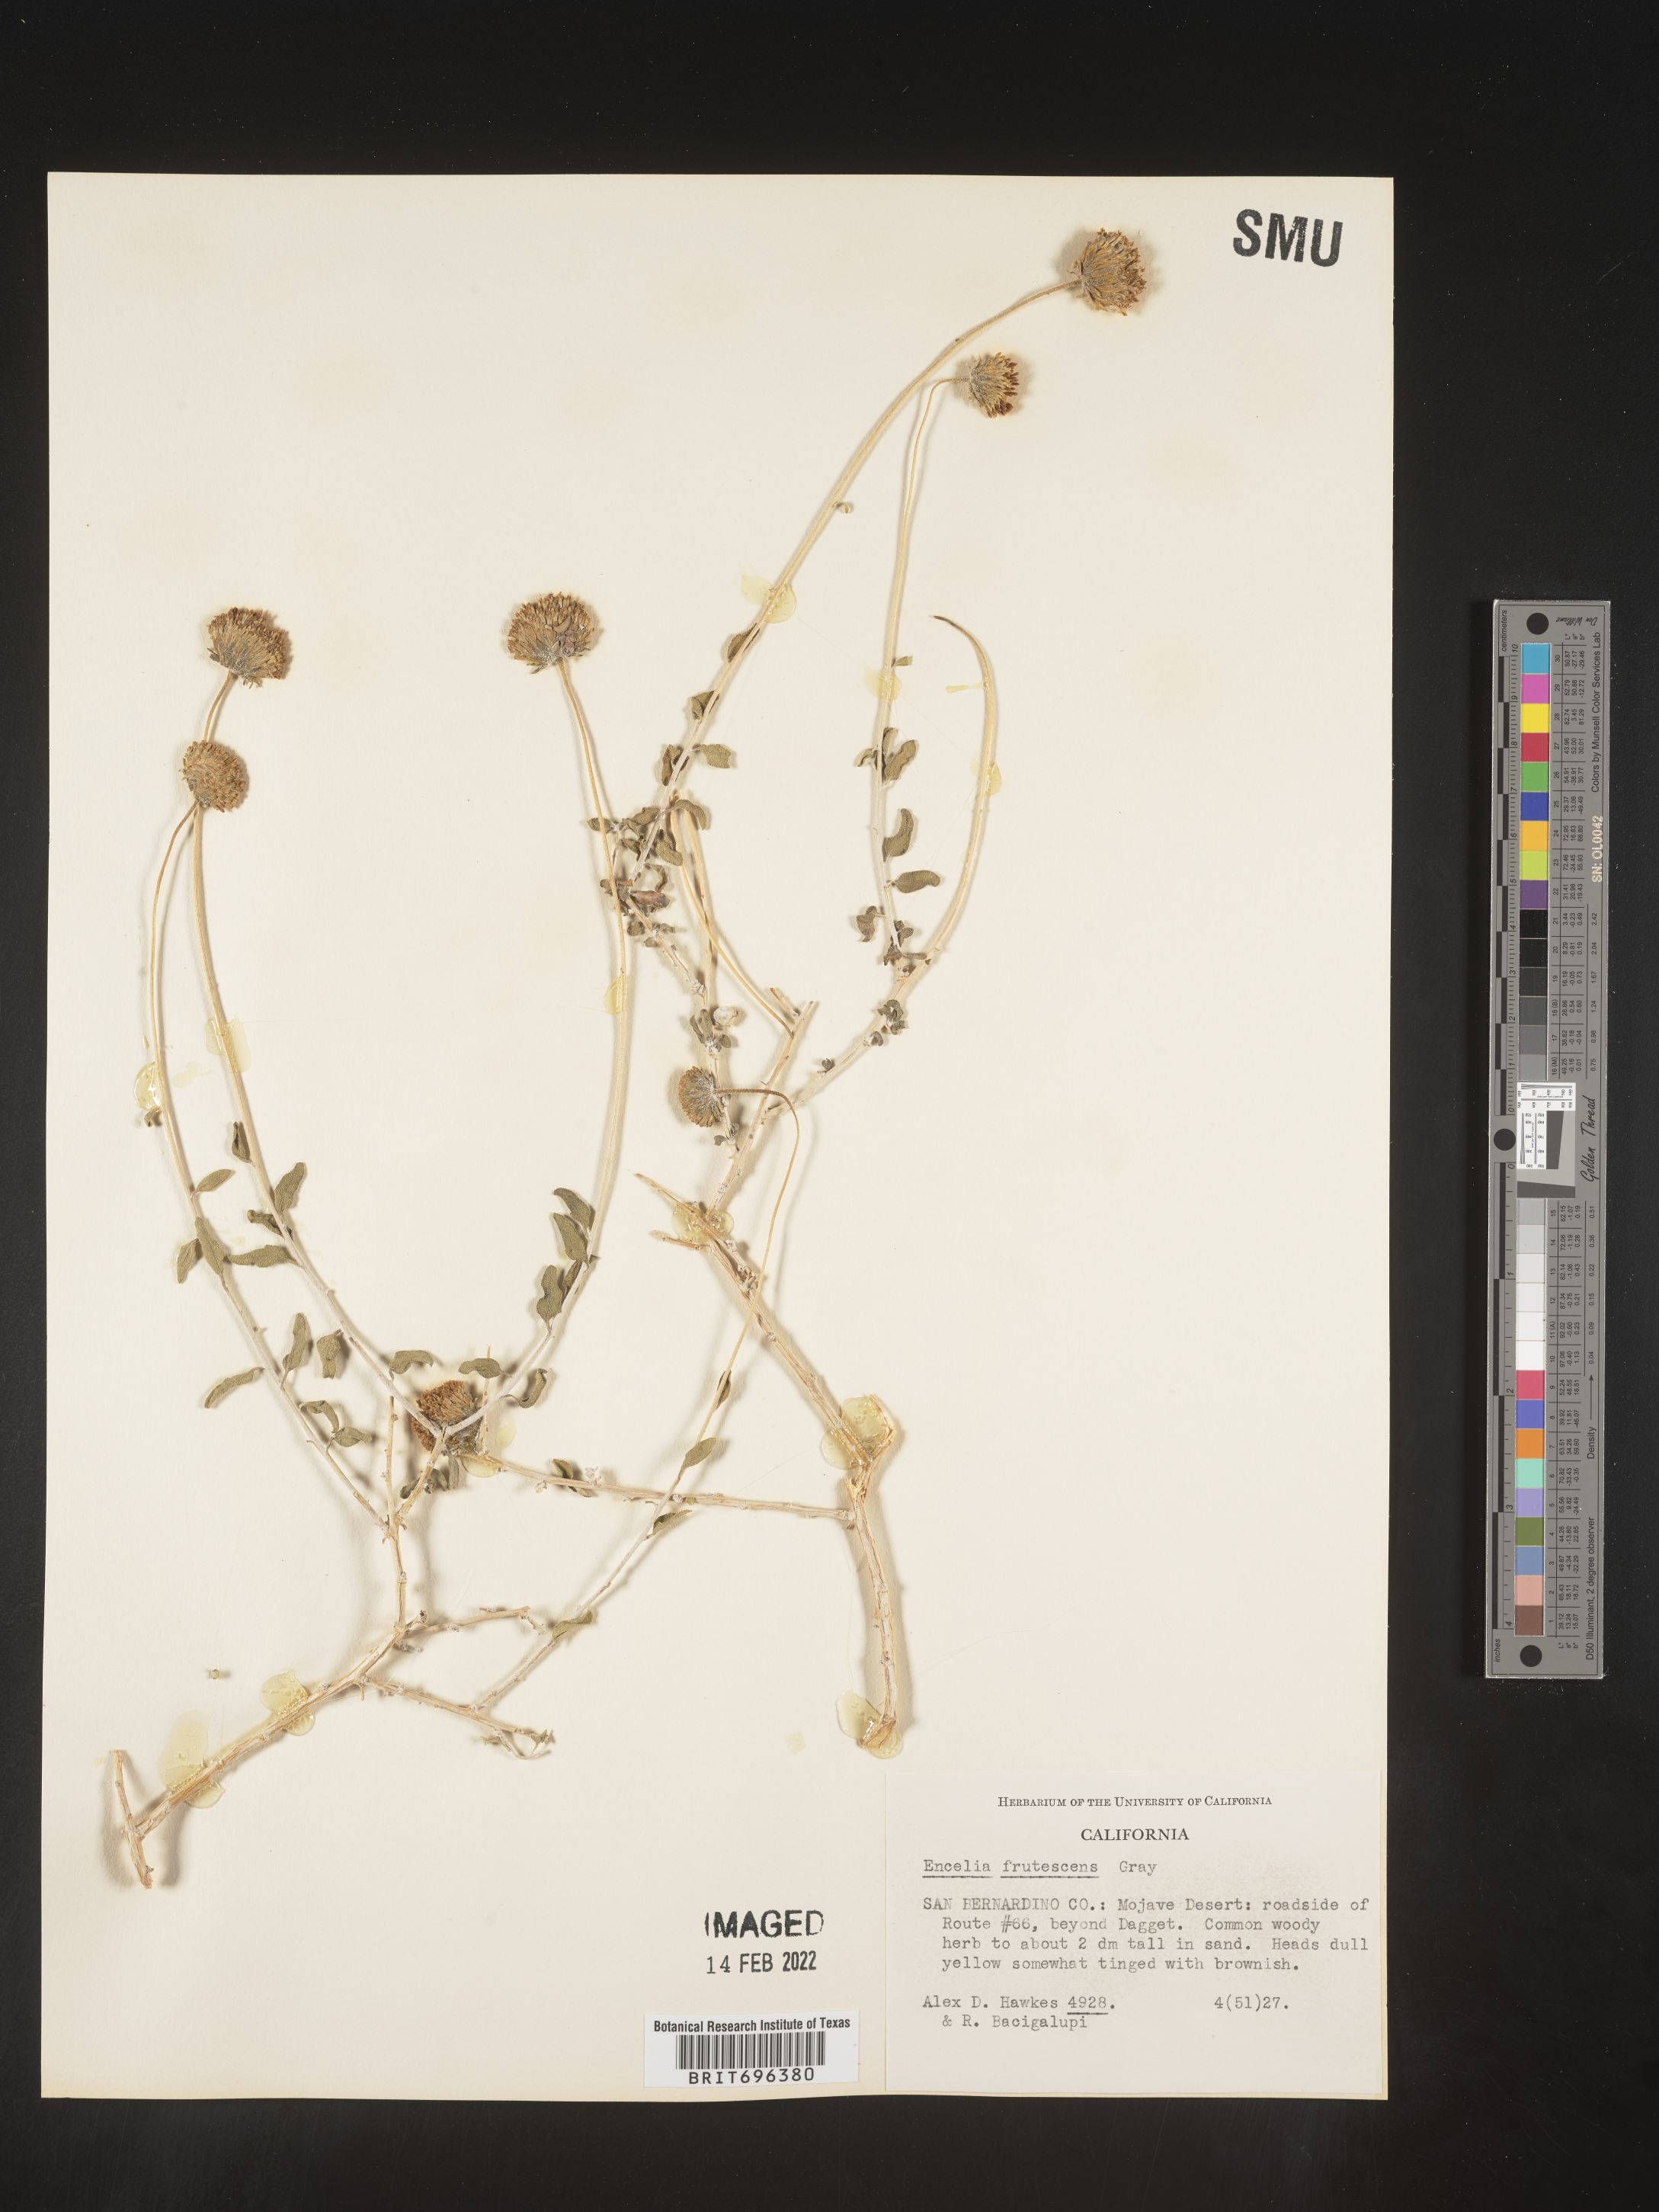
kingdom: Plantae
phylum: Tracheophyta
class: Magnoliopsida
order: Asterales
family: Asteraceae
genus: Encelia
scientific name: Encelia frutescens
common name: Bush encelia
